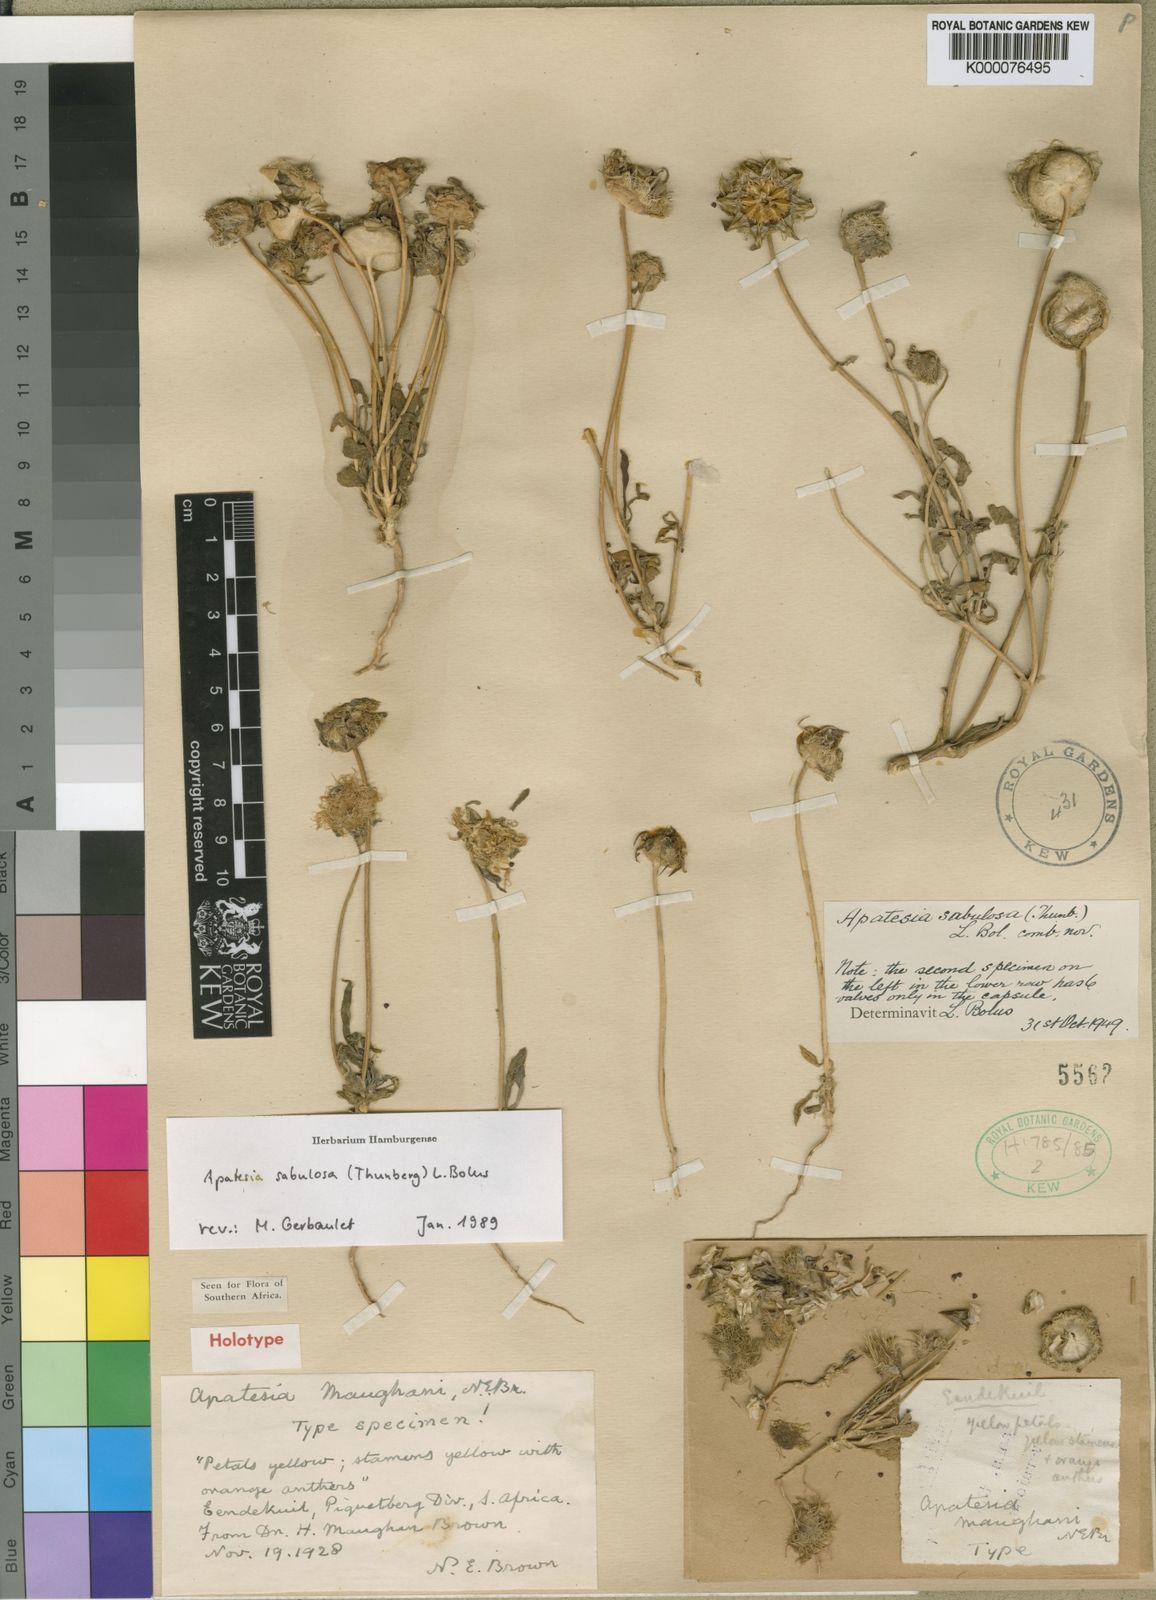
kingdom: Plantae
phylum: Tracheophyta
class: Magnoliopsida
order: Caryophyllales
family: Aizoaceae
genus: Apatesia
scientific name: Apatesia sabulosa
